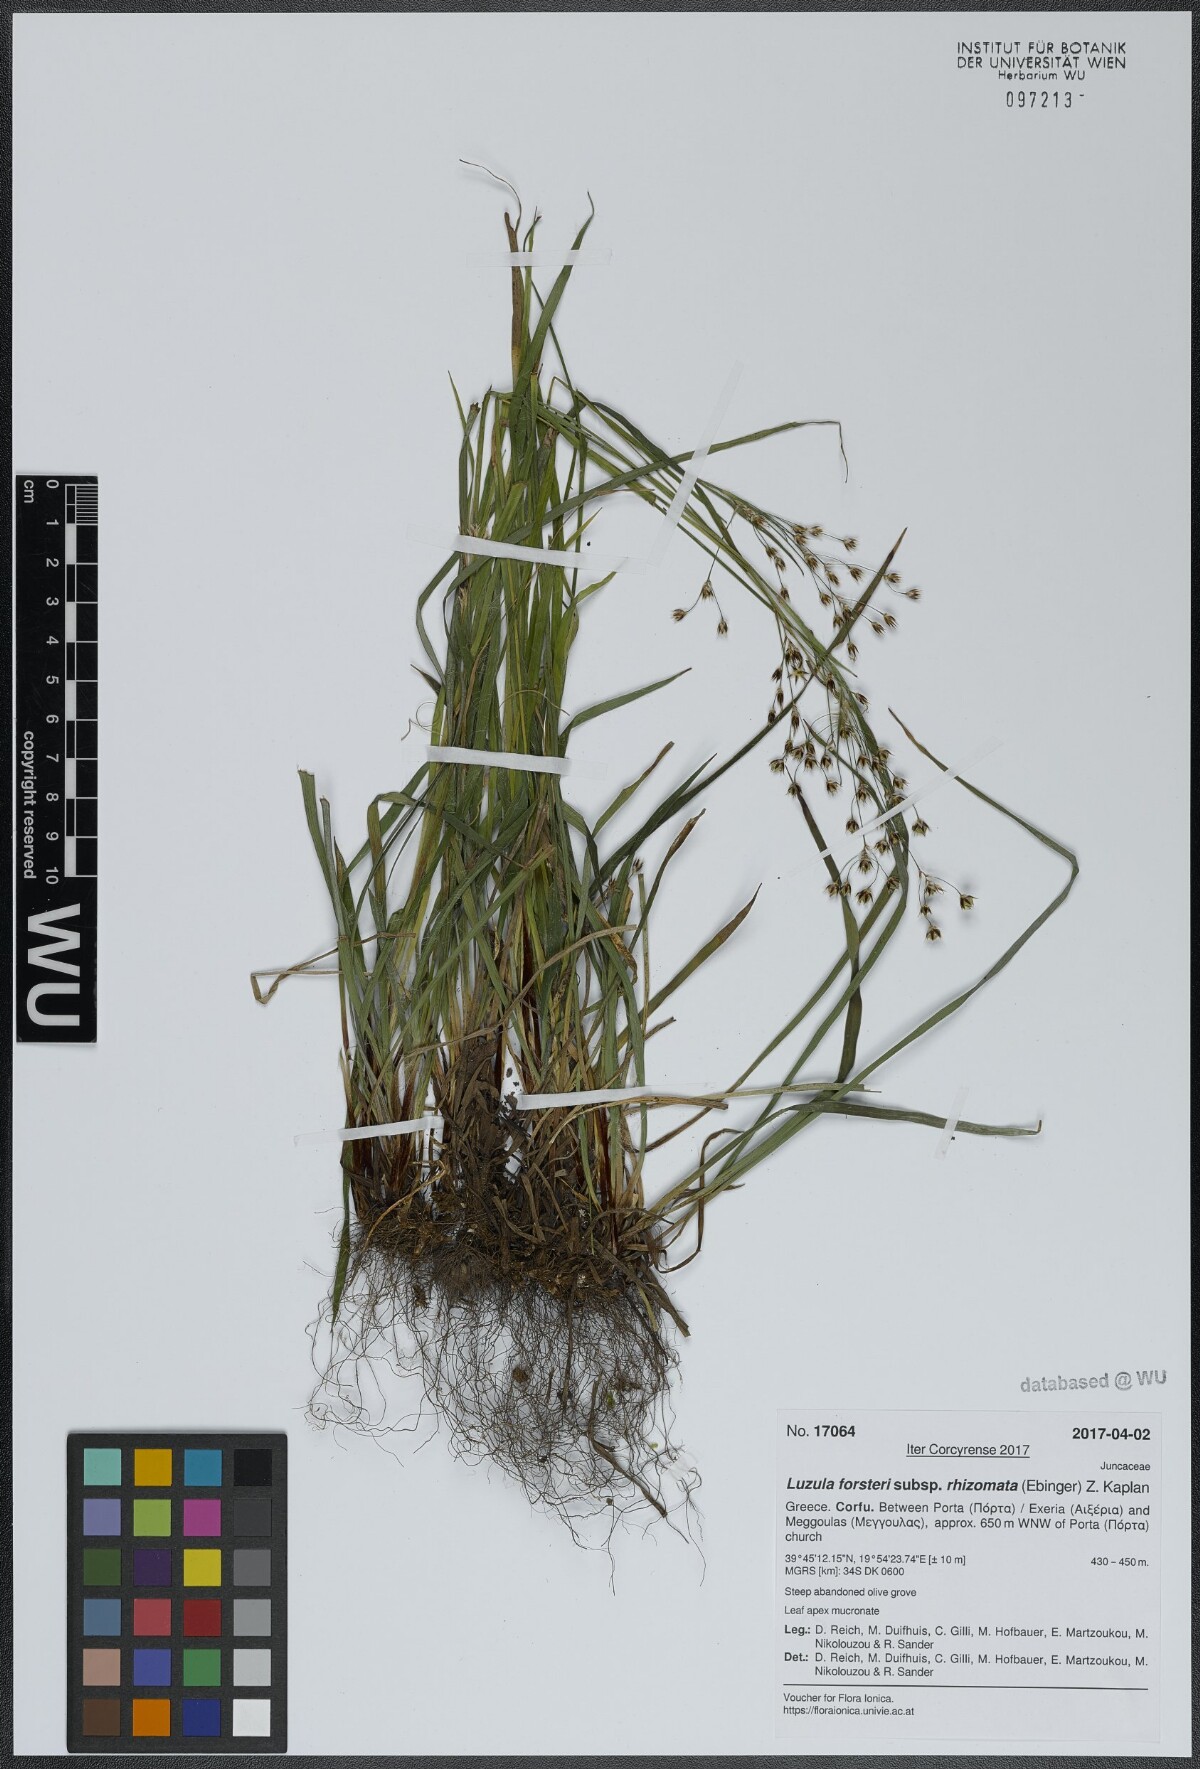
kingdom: Plantae
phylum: Tracheophyta
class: Liliopsida
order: Poales
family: Juncaceae
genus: Luzula
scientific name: Luzula forsteri
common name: Southern wood-rush
